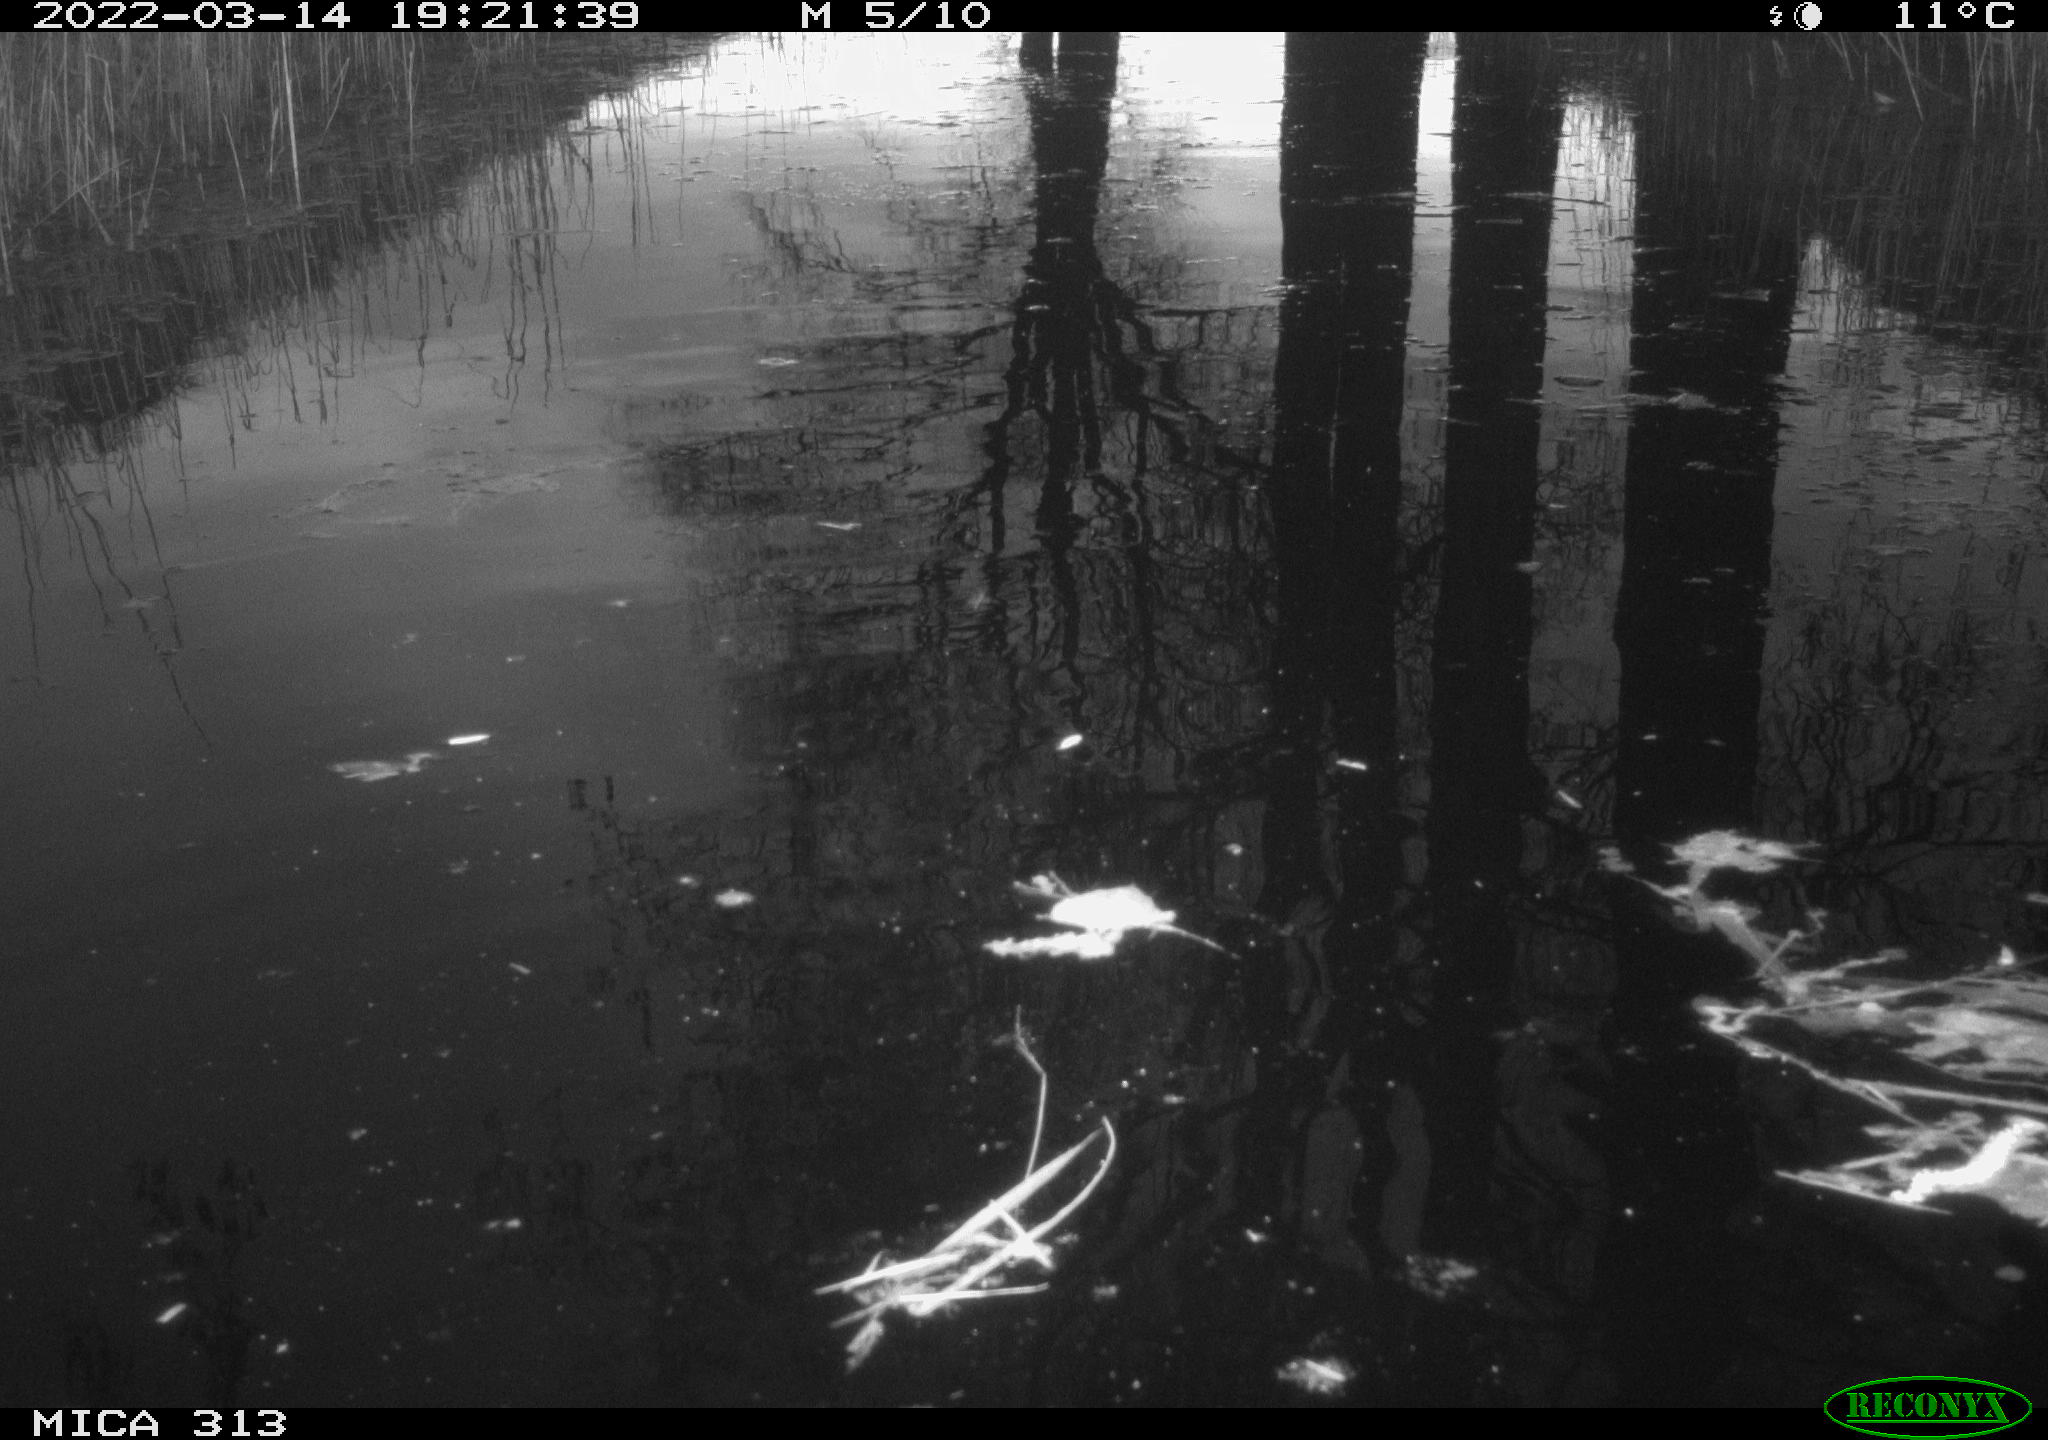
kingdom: Animalia
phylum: Chordata
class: Aves
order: Gruiformes
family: Rallidae
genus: Gallinula
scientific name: Gallinula chloropus
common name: Common moorhen
